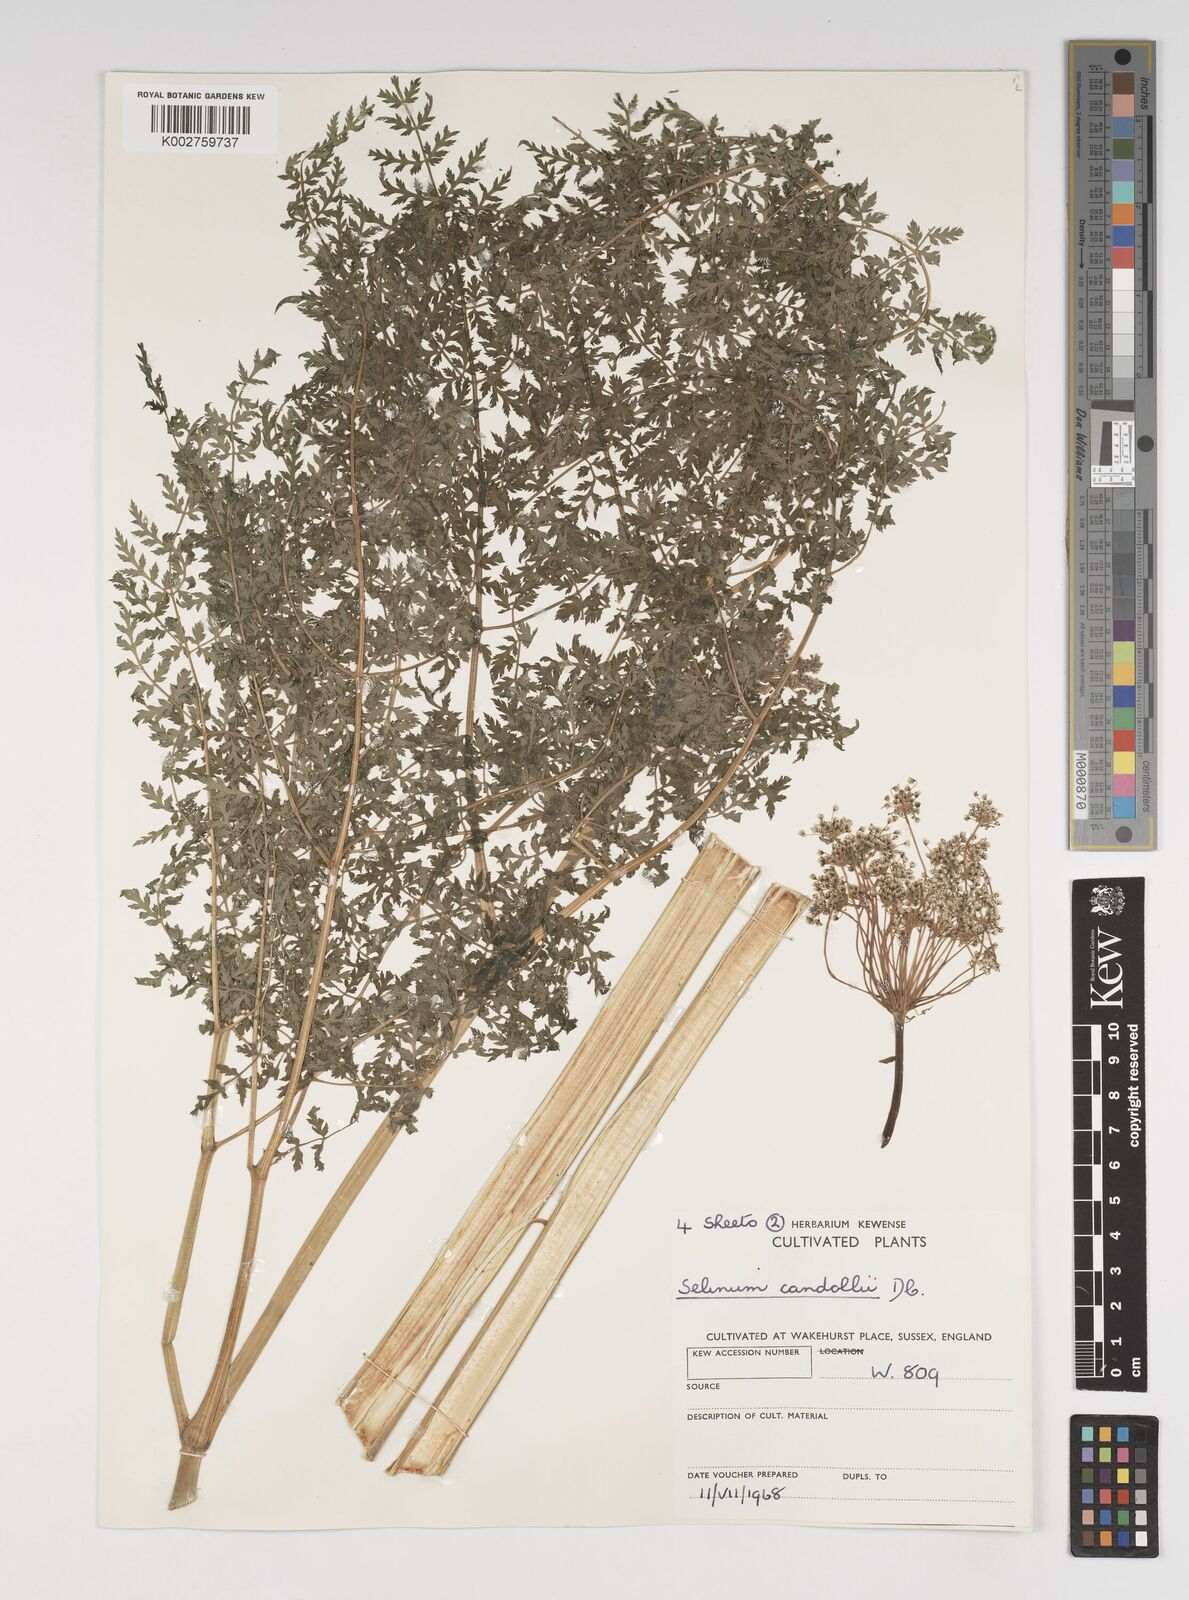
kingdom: Plantae
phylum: Tracheophyta
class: Magnoliopsida
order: Apiales
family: Apiaceae
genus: Oreocome
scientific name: Oreocome candollei
